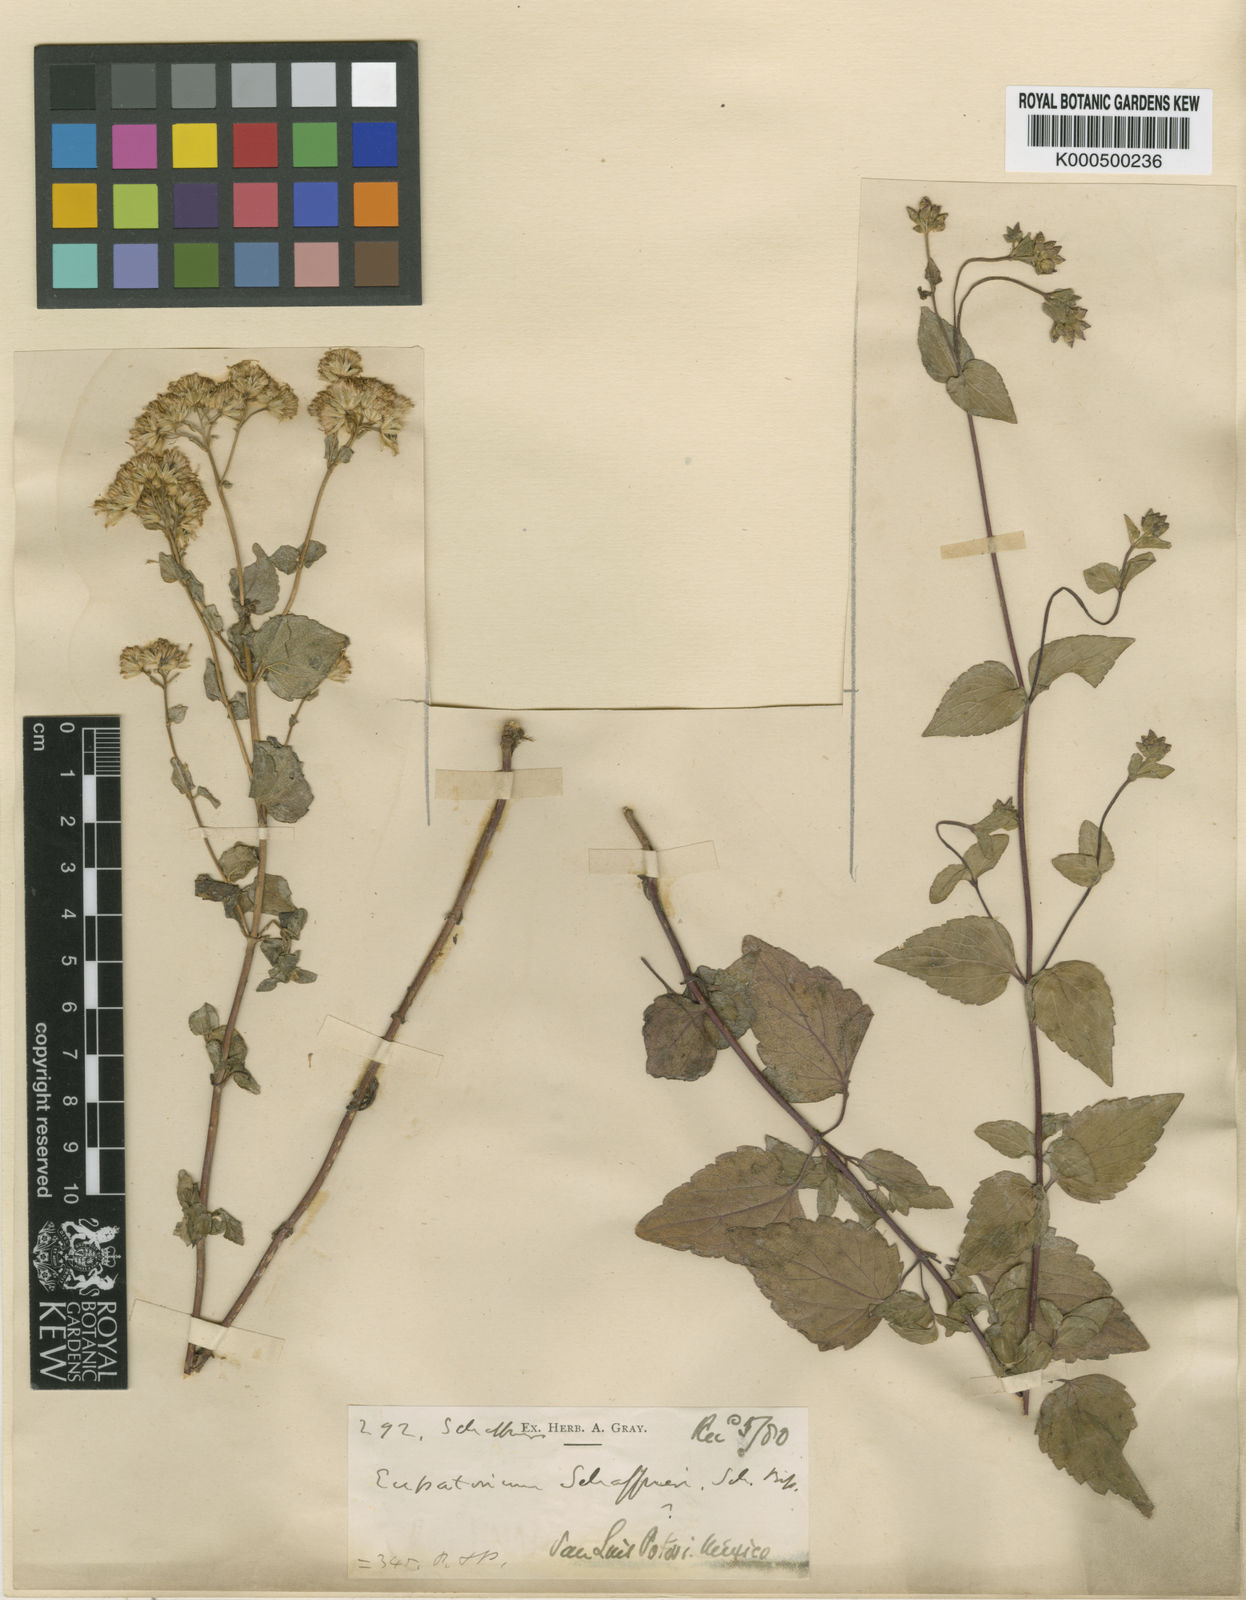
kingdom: Plantae
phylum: Tracheophyta
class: Magnoliopsida
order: Asterales
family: Asteraceae
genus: Ageratina
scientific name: Ageratina schaffneri
